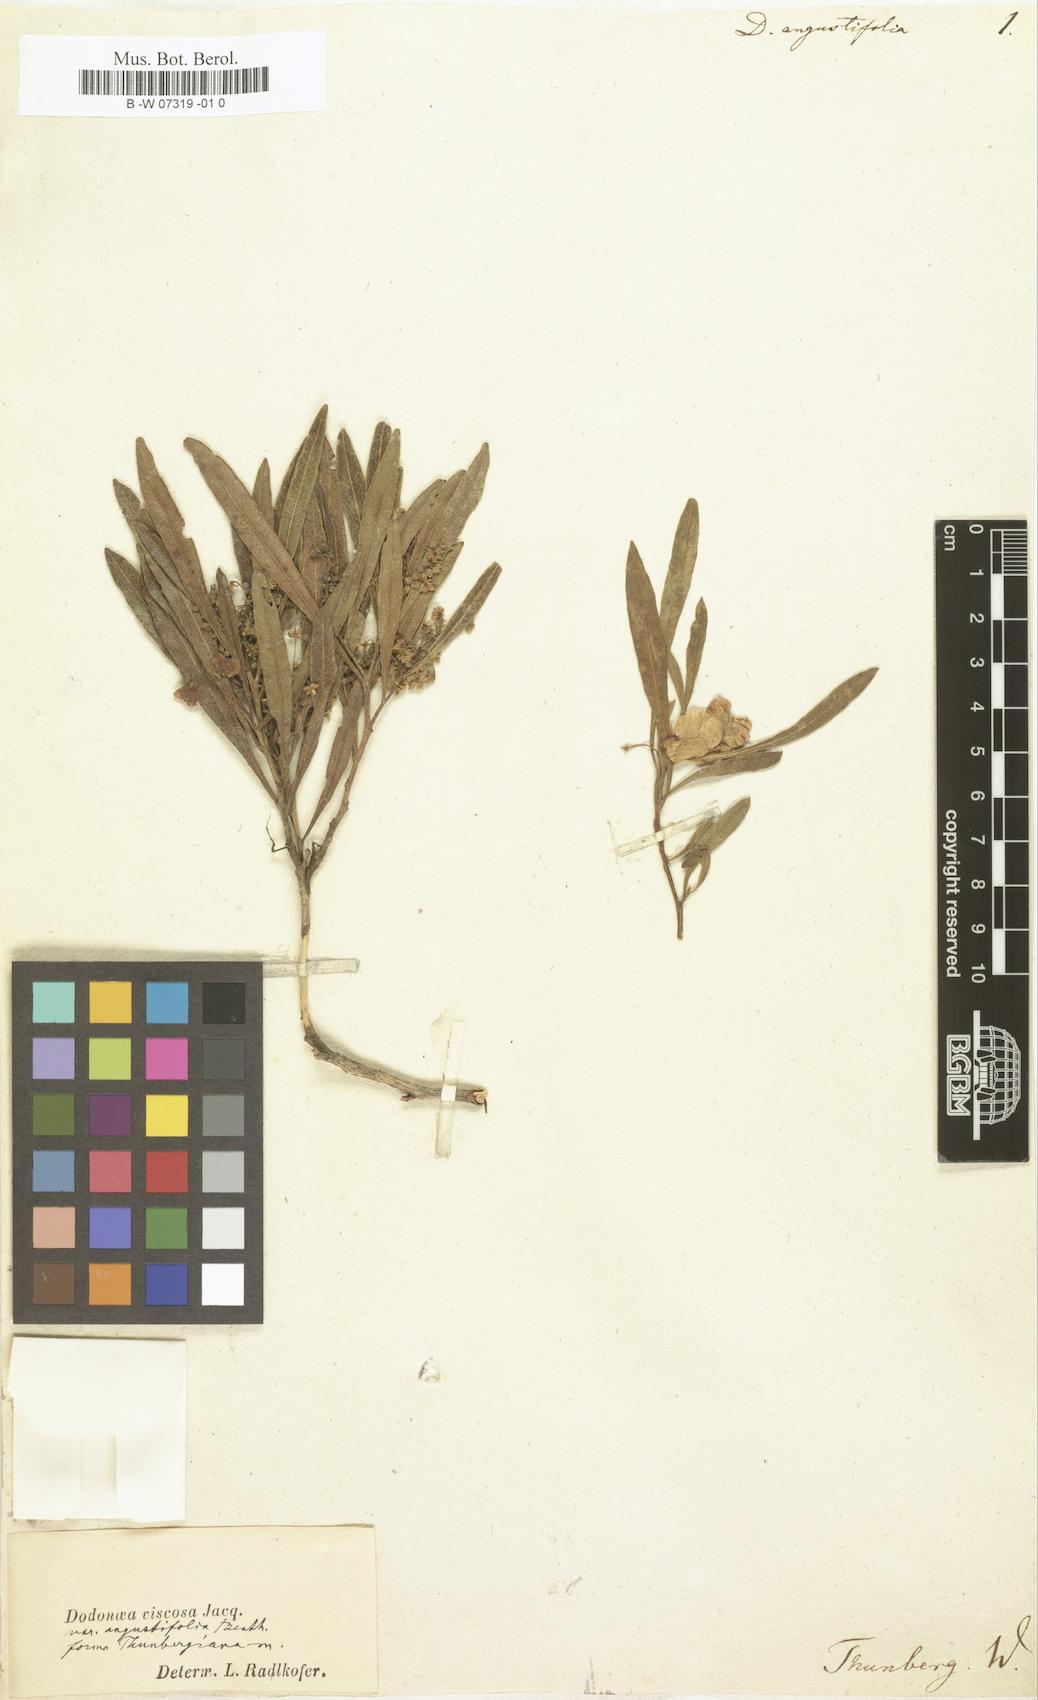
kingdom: Plantae
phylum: Tracheophyta
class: Magnoliopsida
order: Sapindales
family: Sapindaceae
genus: Dodonaea
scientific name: Dodonaea angustifolia
